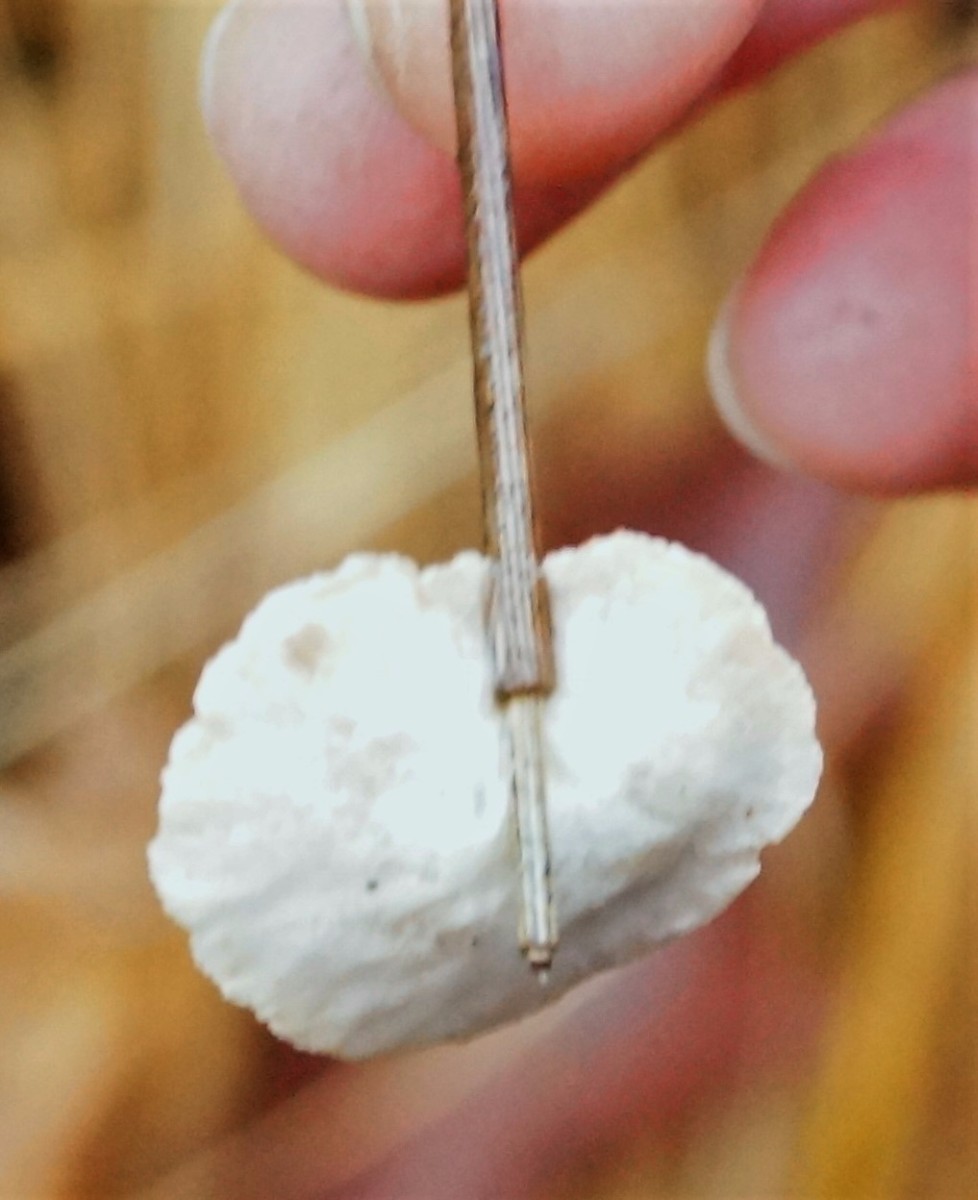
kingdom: Fungi
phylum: Basidiomycota
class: Agaricomycetes
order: Agaricales
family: Crepidotaceae
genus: Crepidotus
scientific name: Crepidotus
